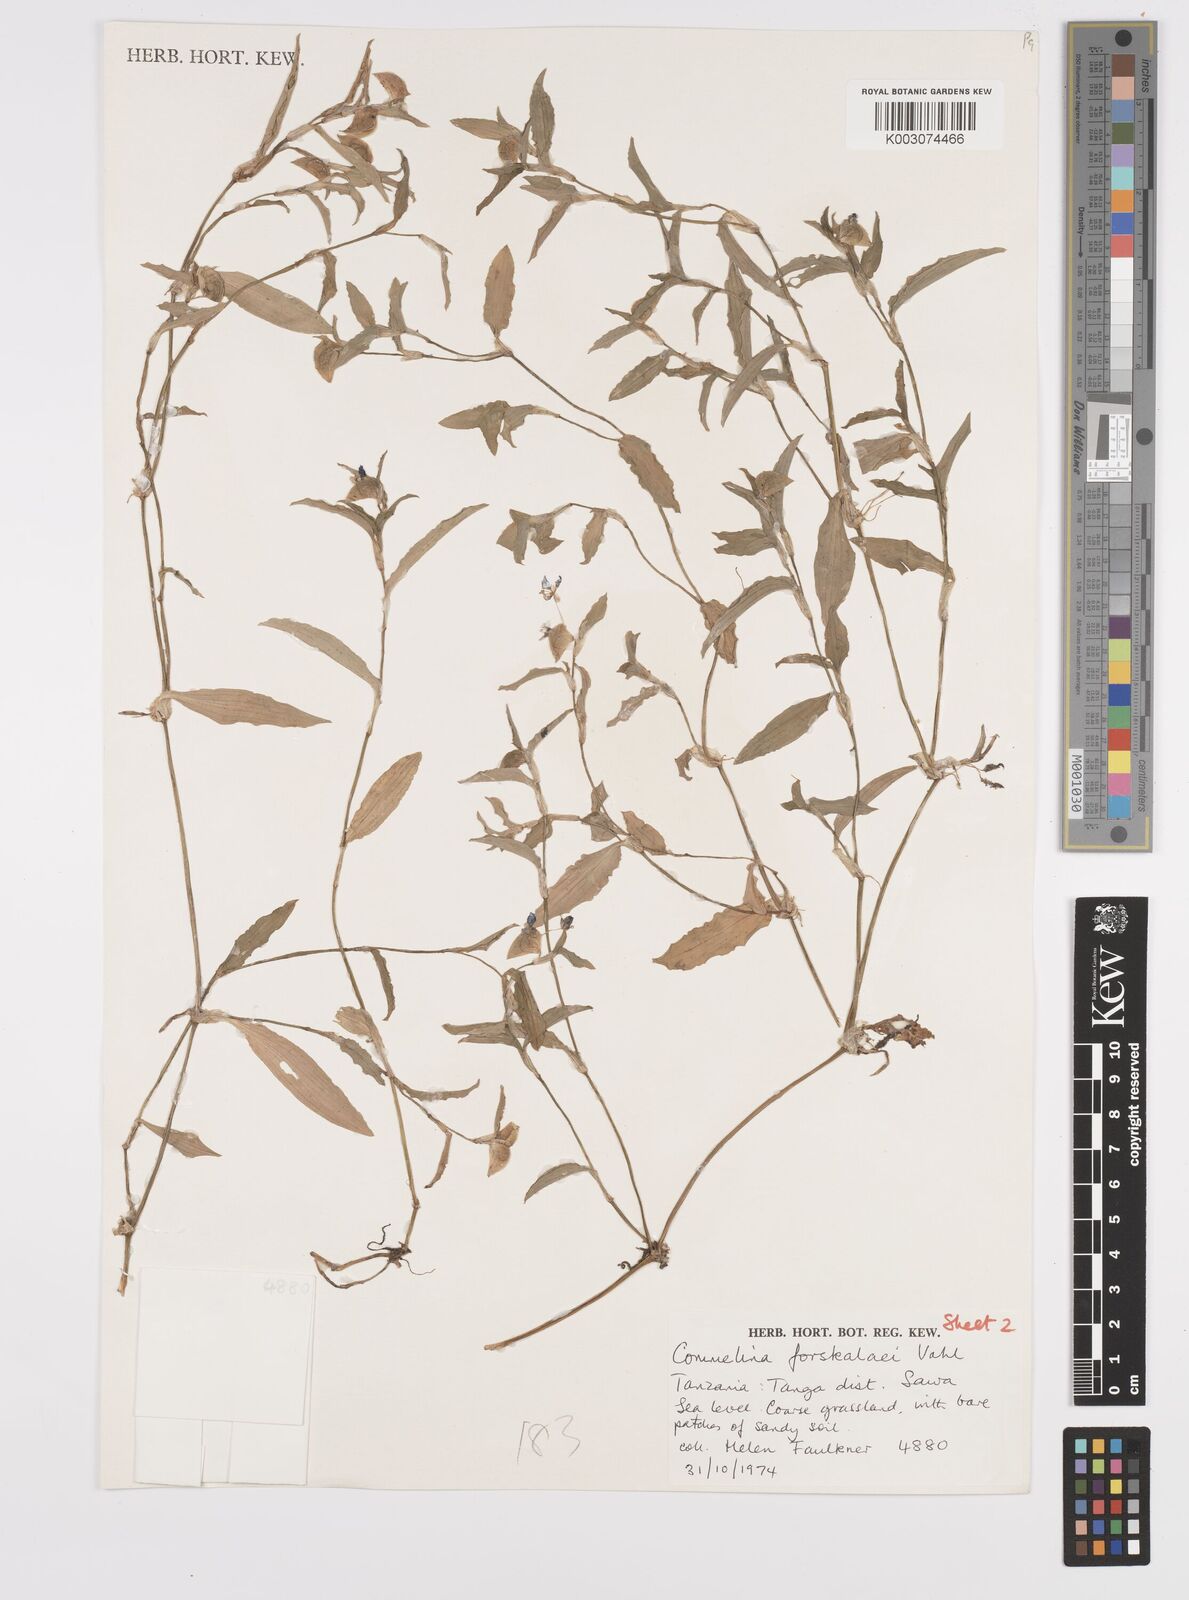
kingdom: Plantae
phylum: Tracheophyta
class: Liliopsida
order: Commelinales
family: Commelinaceae
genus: Commelina
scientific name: Commelina forskaolii
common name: Rat's ear
